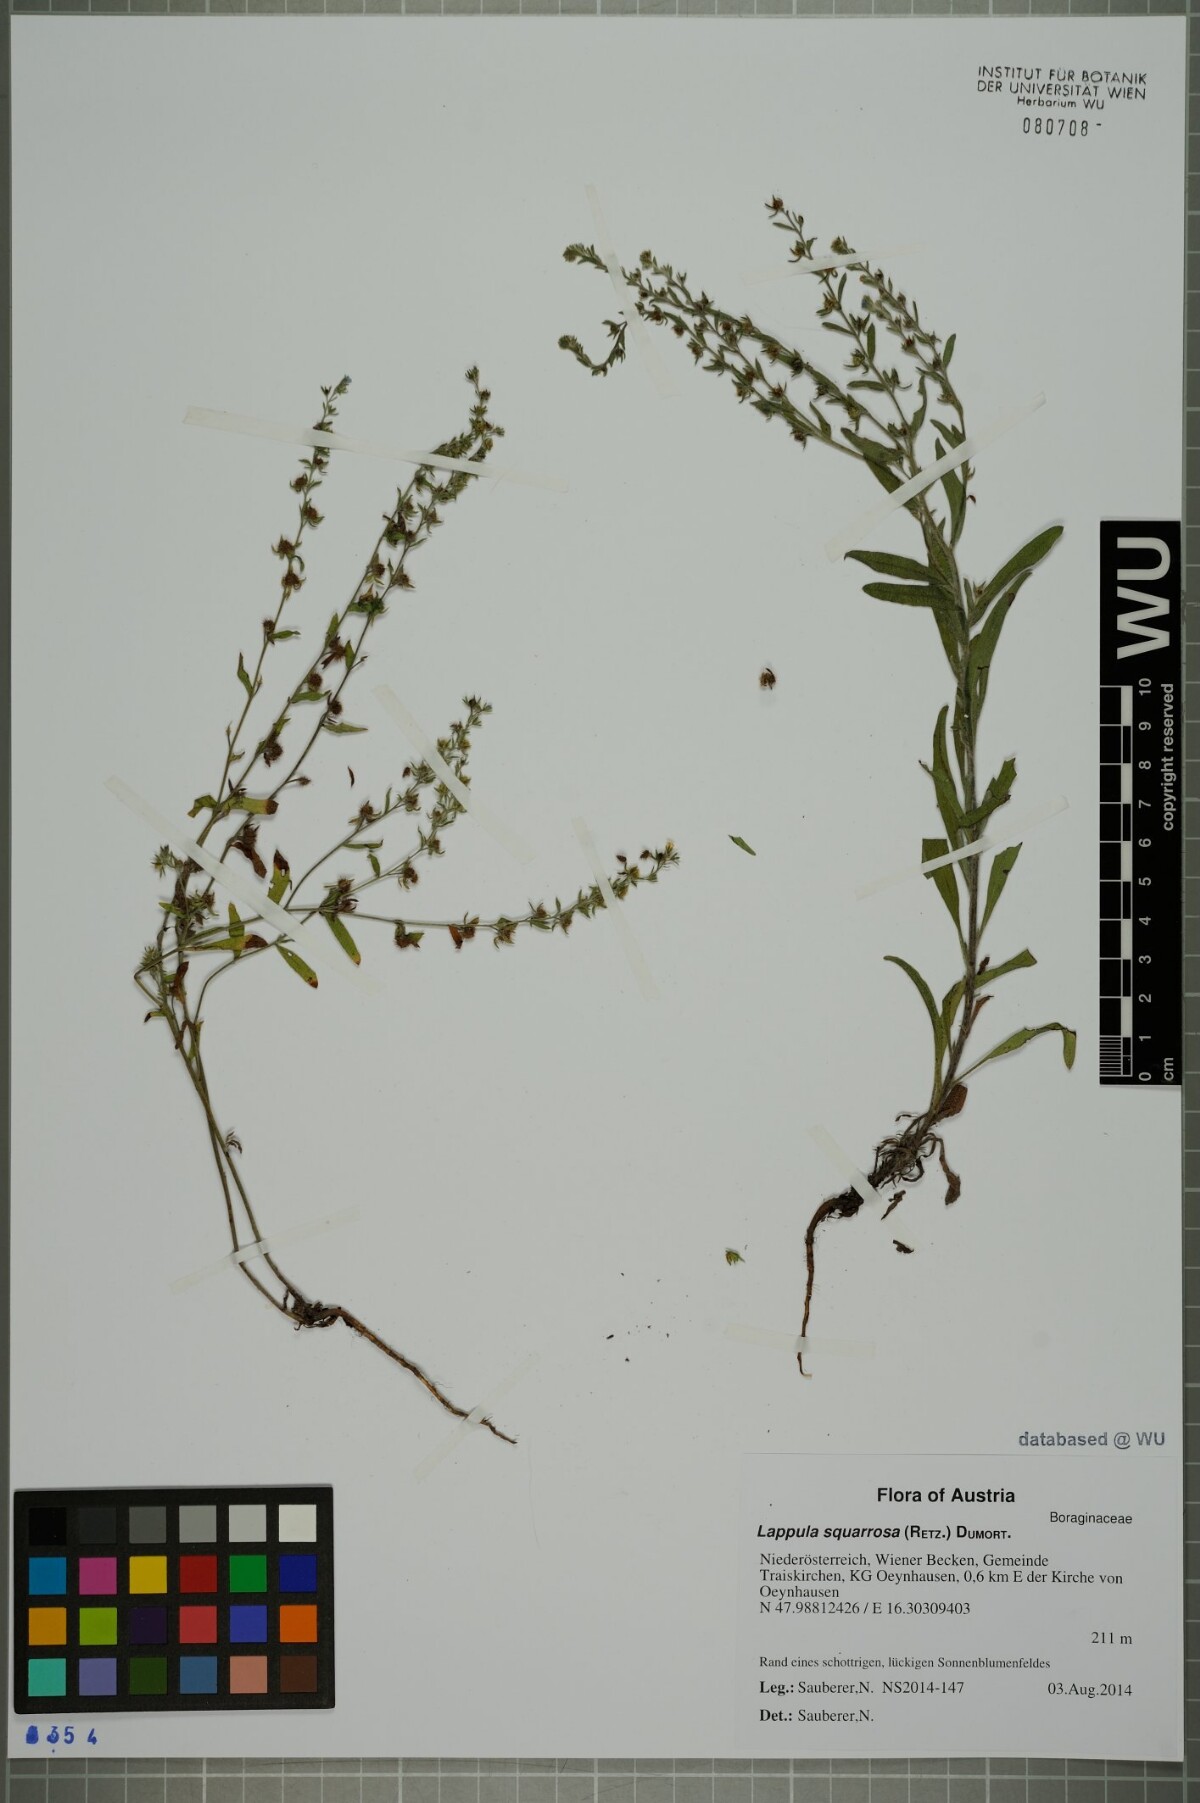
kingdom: Plantae
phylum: Tracheophyta
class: Magnoliopsida
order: Boraginales
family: Boraginaceae
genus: Lappula
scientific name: Lappula squarrosa
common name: European stickseed
